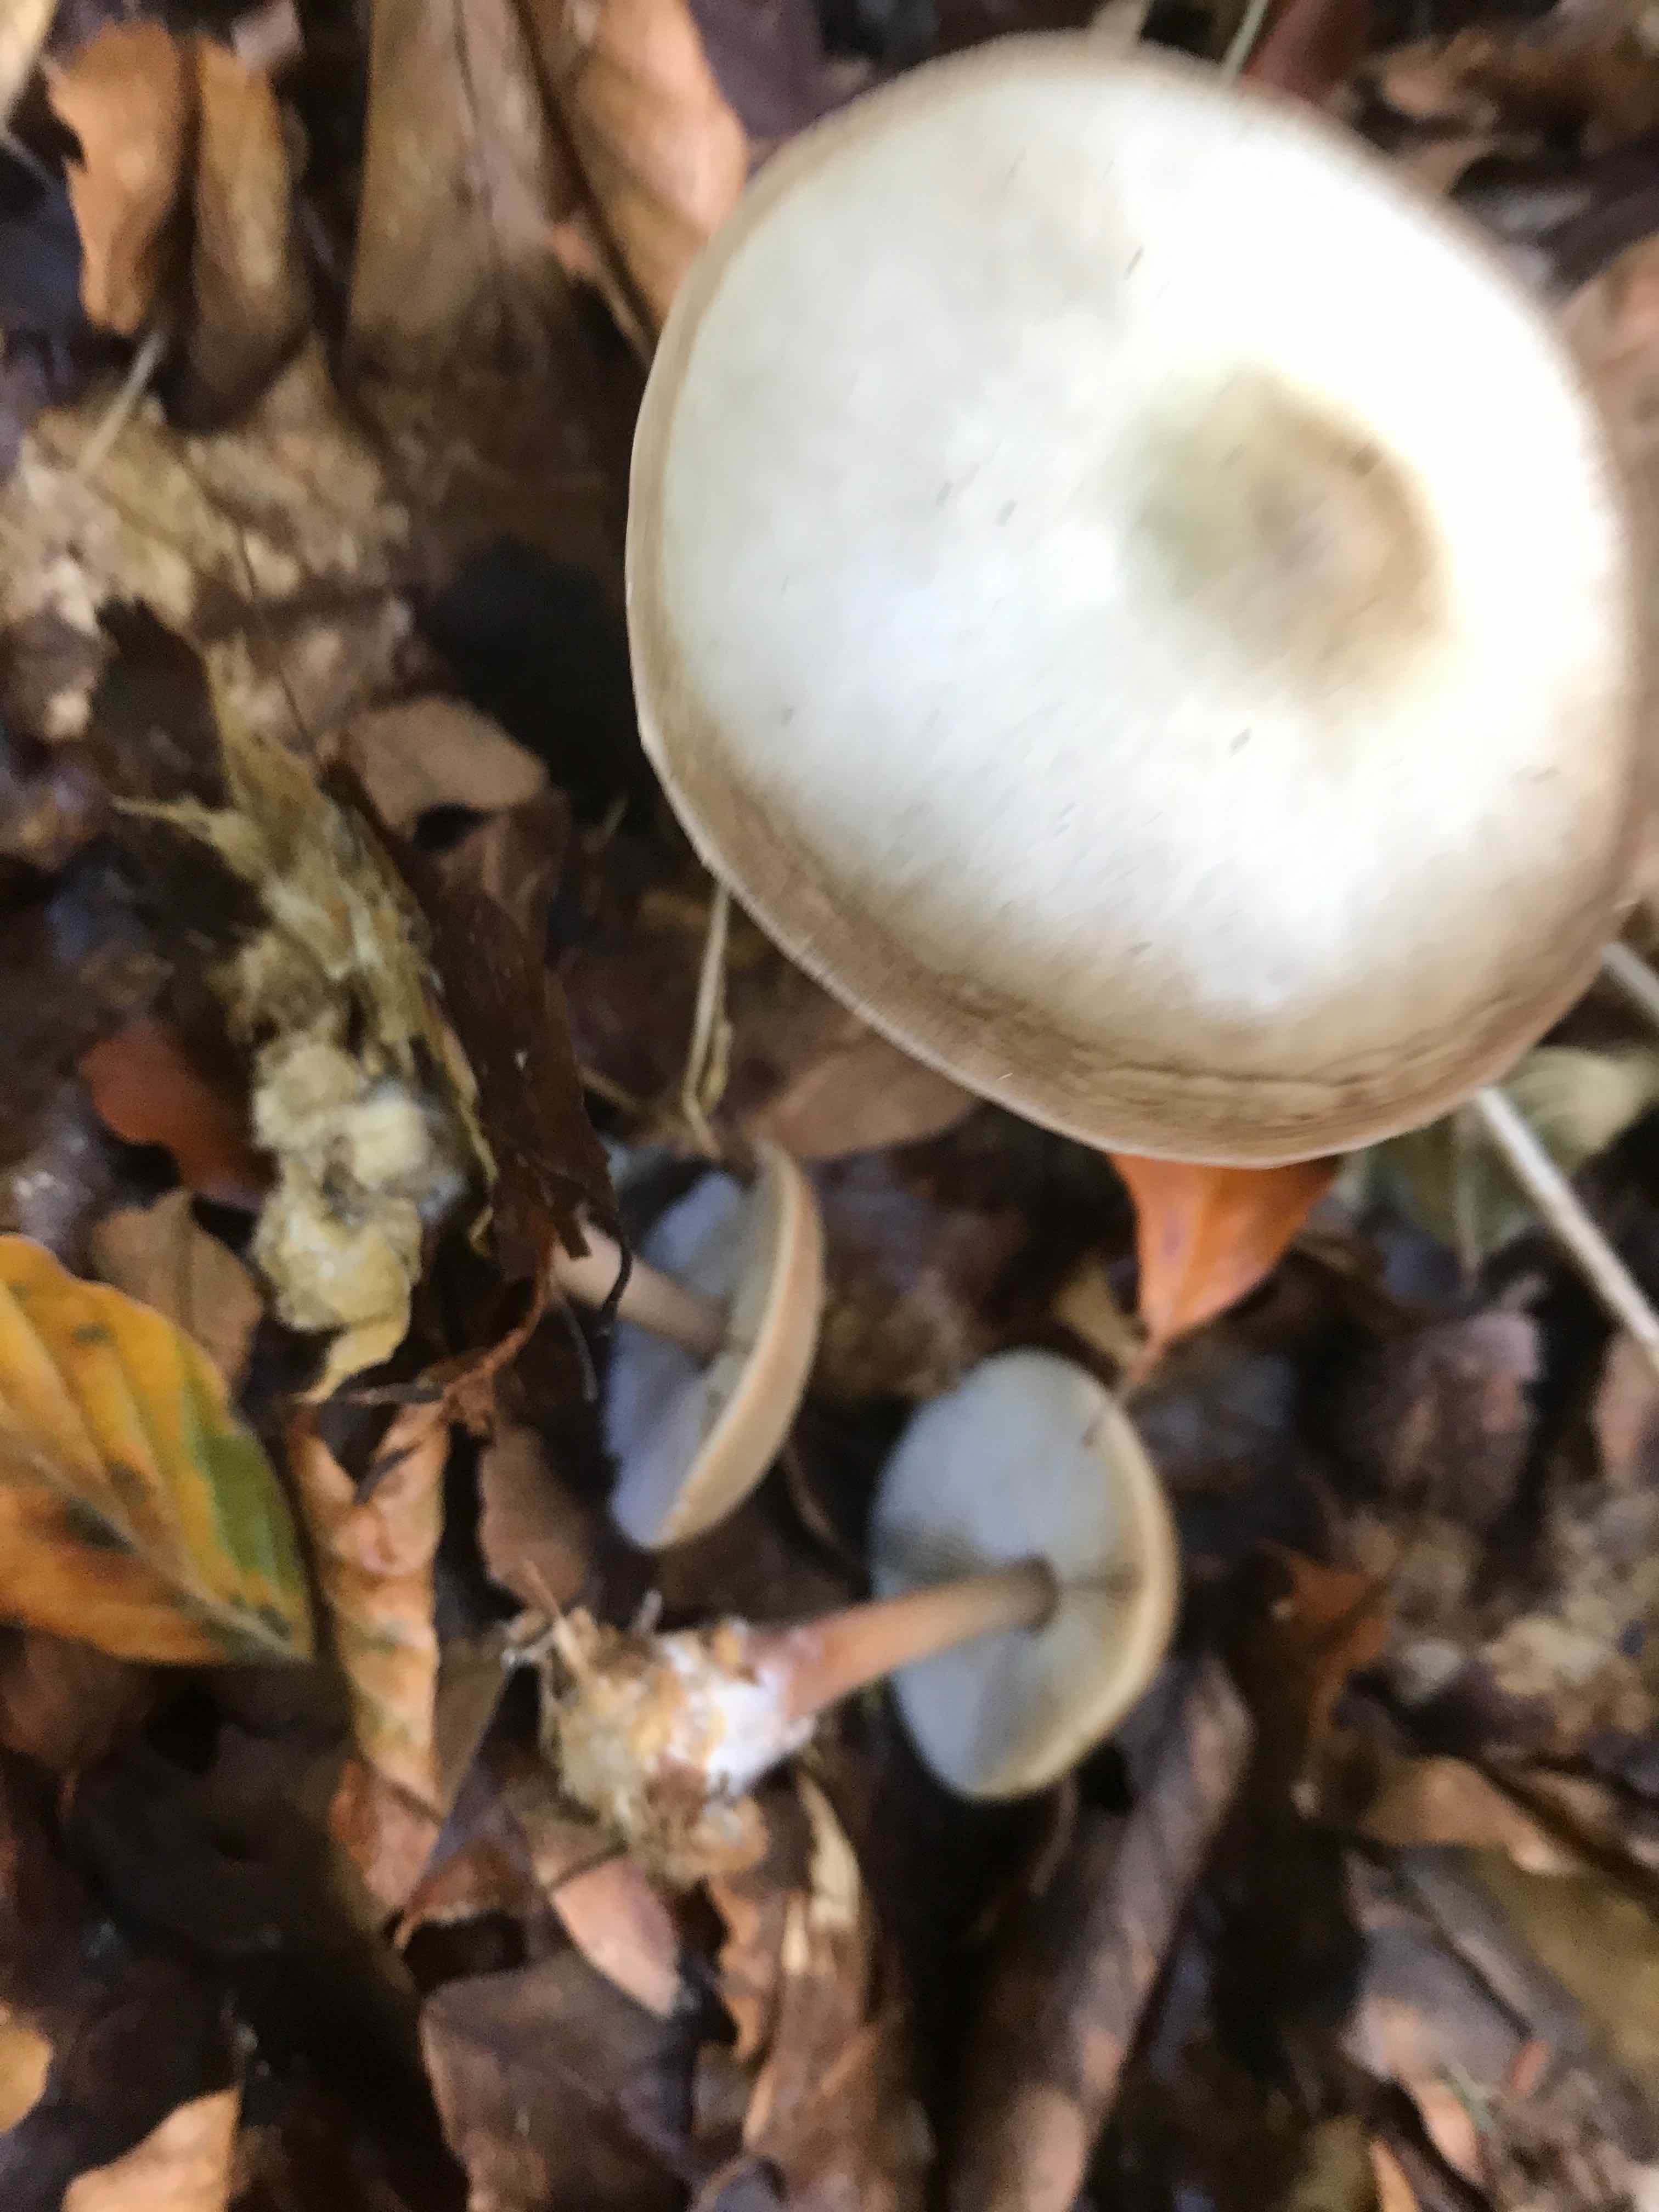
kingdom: Fungi
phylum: Basidiomycota
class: Agaricomycetes
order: Agaricales
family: Omphalotaceae
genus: Rhodocollybia
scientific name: Rhodocollybia asema
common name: horngrå fladhat
